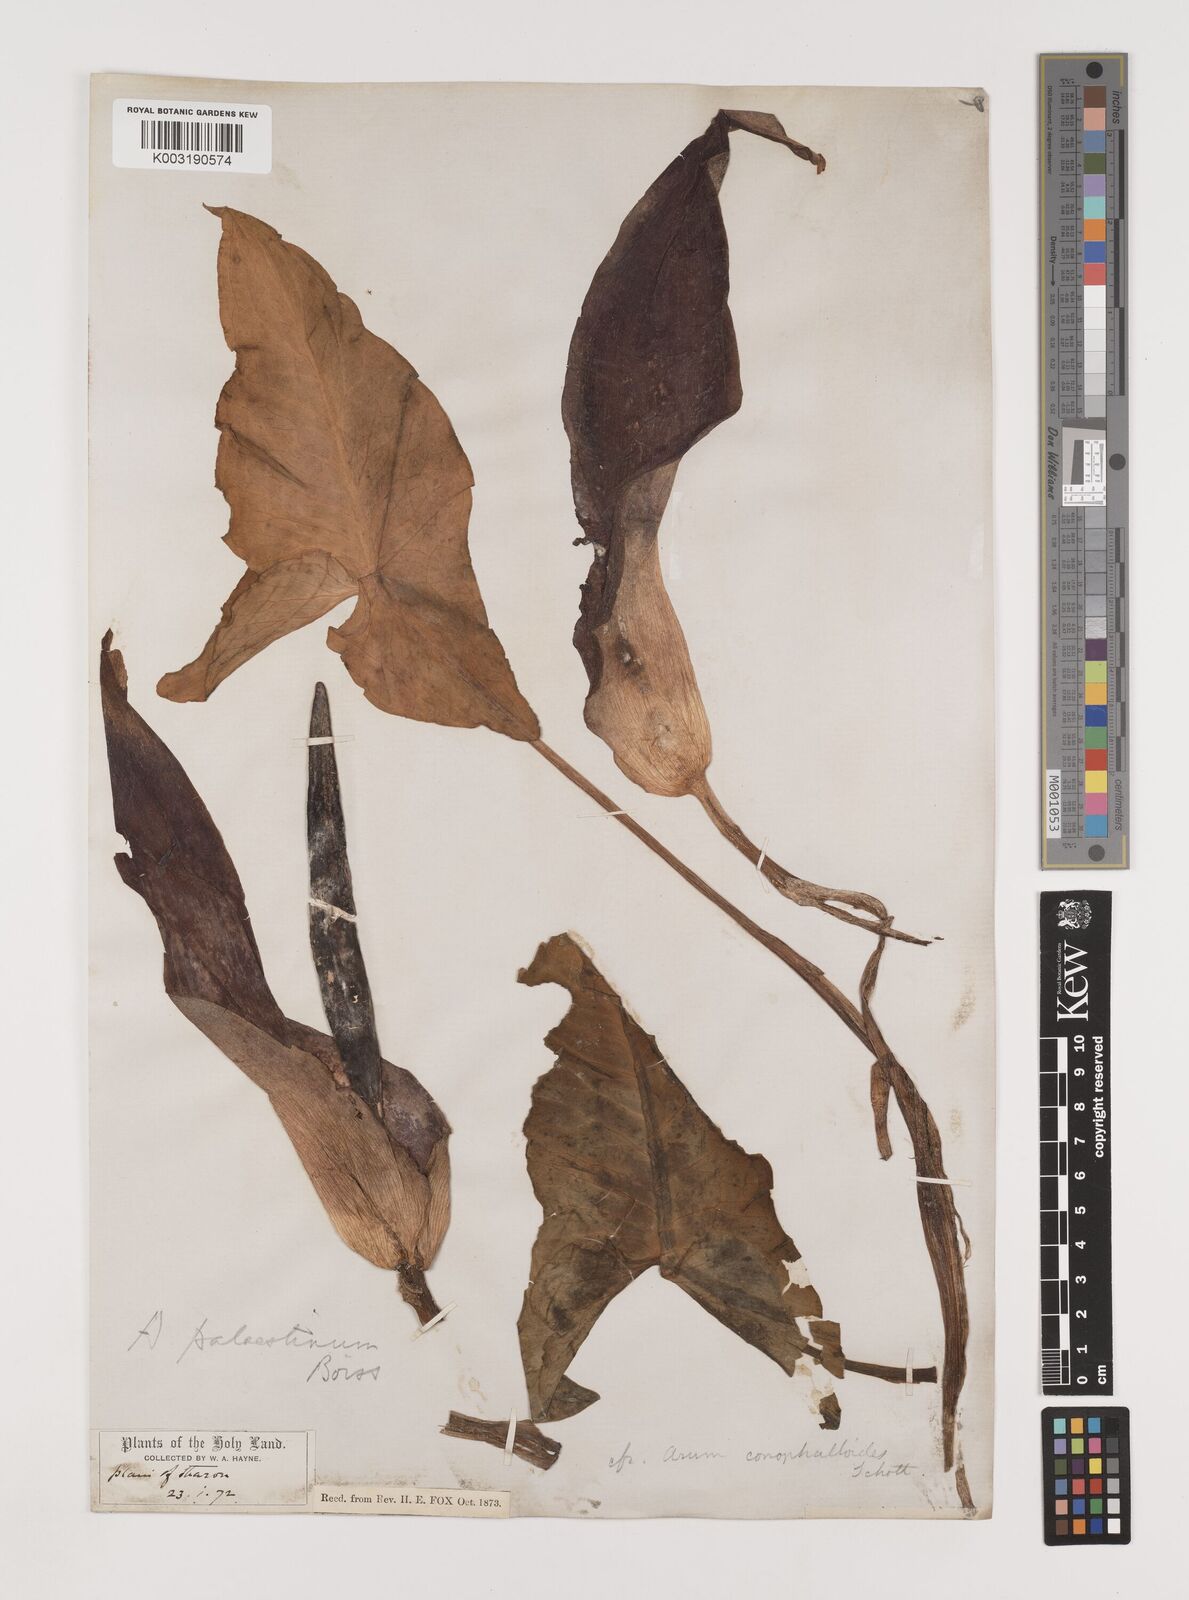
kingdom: Plantae
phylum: Tracheophyta
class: Liliopsida
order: Alismatales
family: Araceae
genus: Arum
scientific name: Arum palaestinum
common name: Solomon's lily
